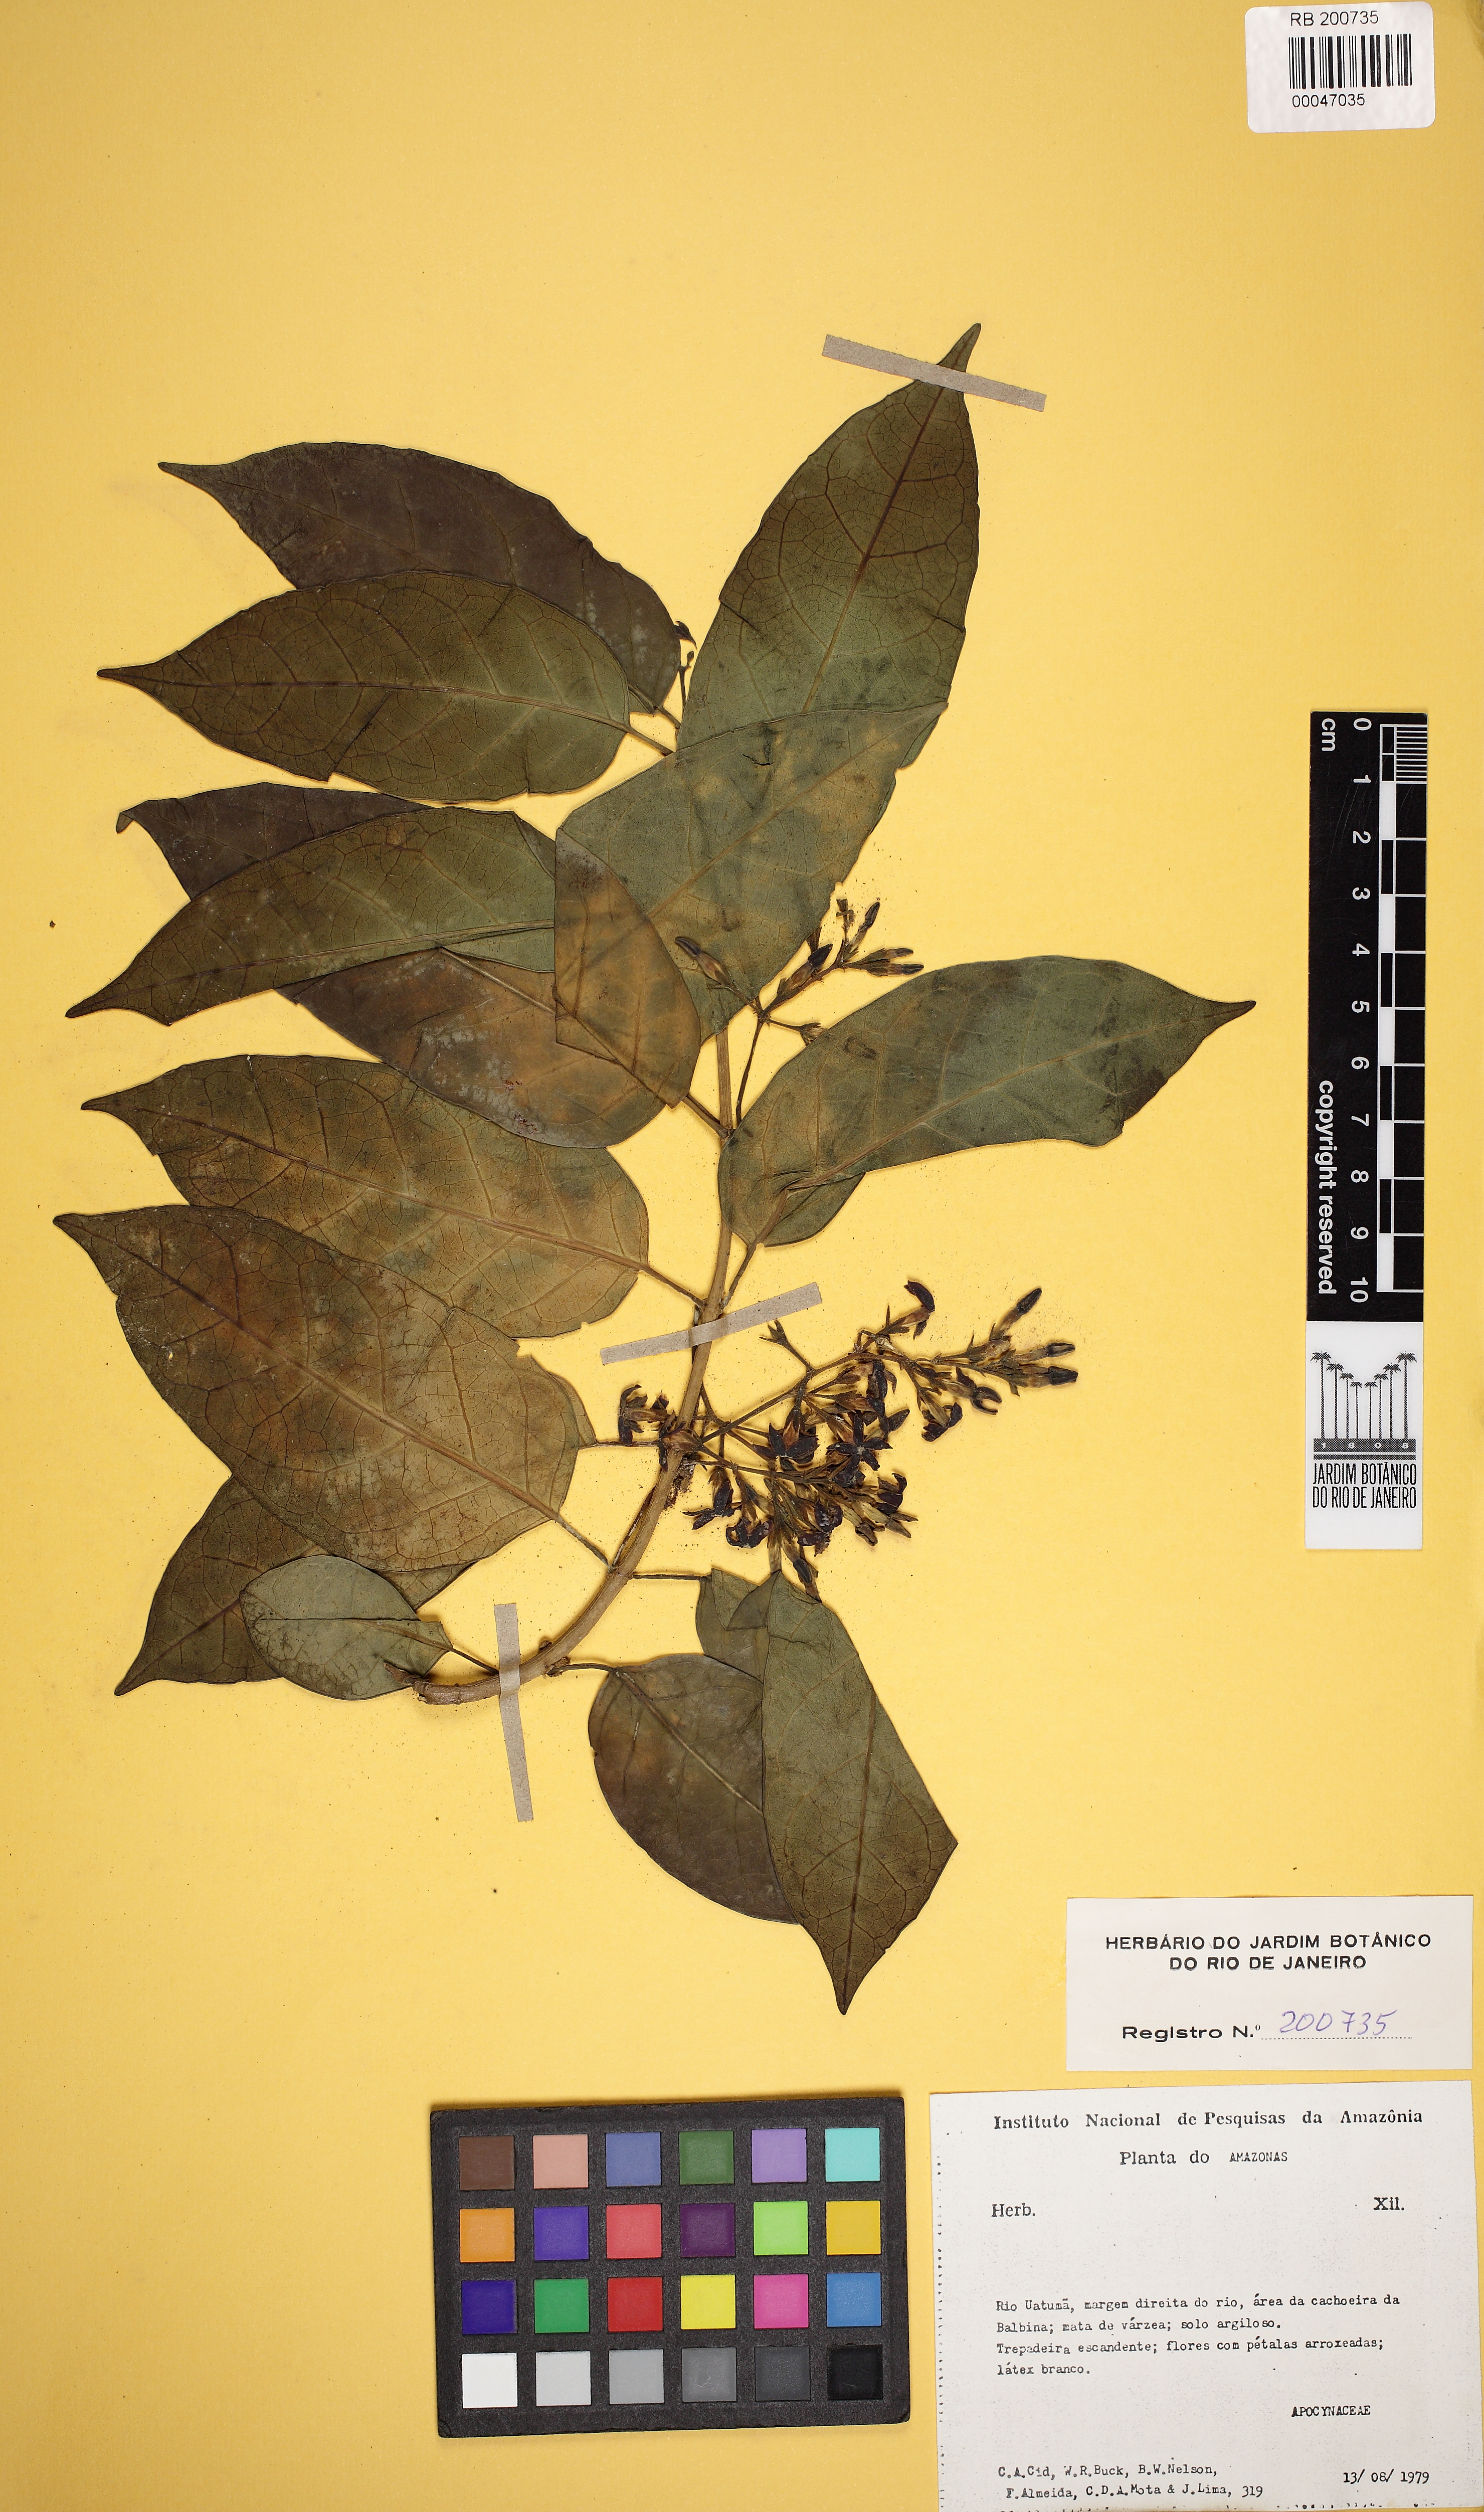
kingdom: Plantae
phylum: Tracheophyta
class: Magnoliopsida
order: Gentianales
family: Apocynaceae
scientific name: Apocynaceae
